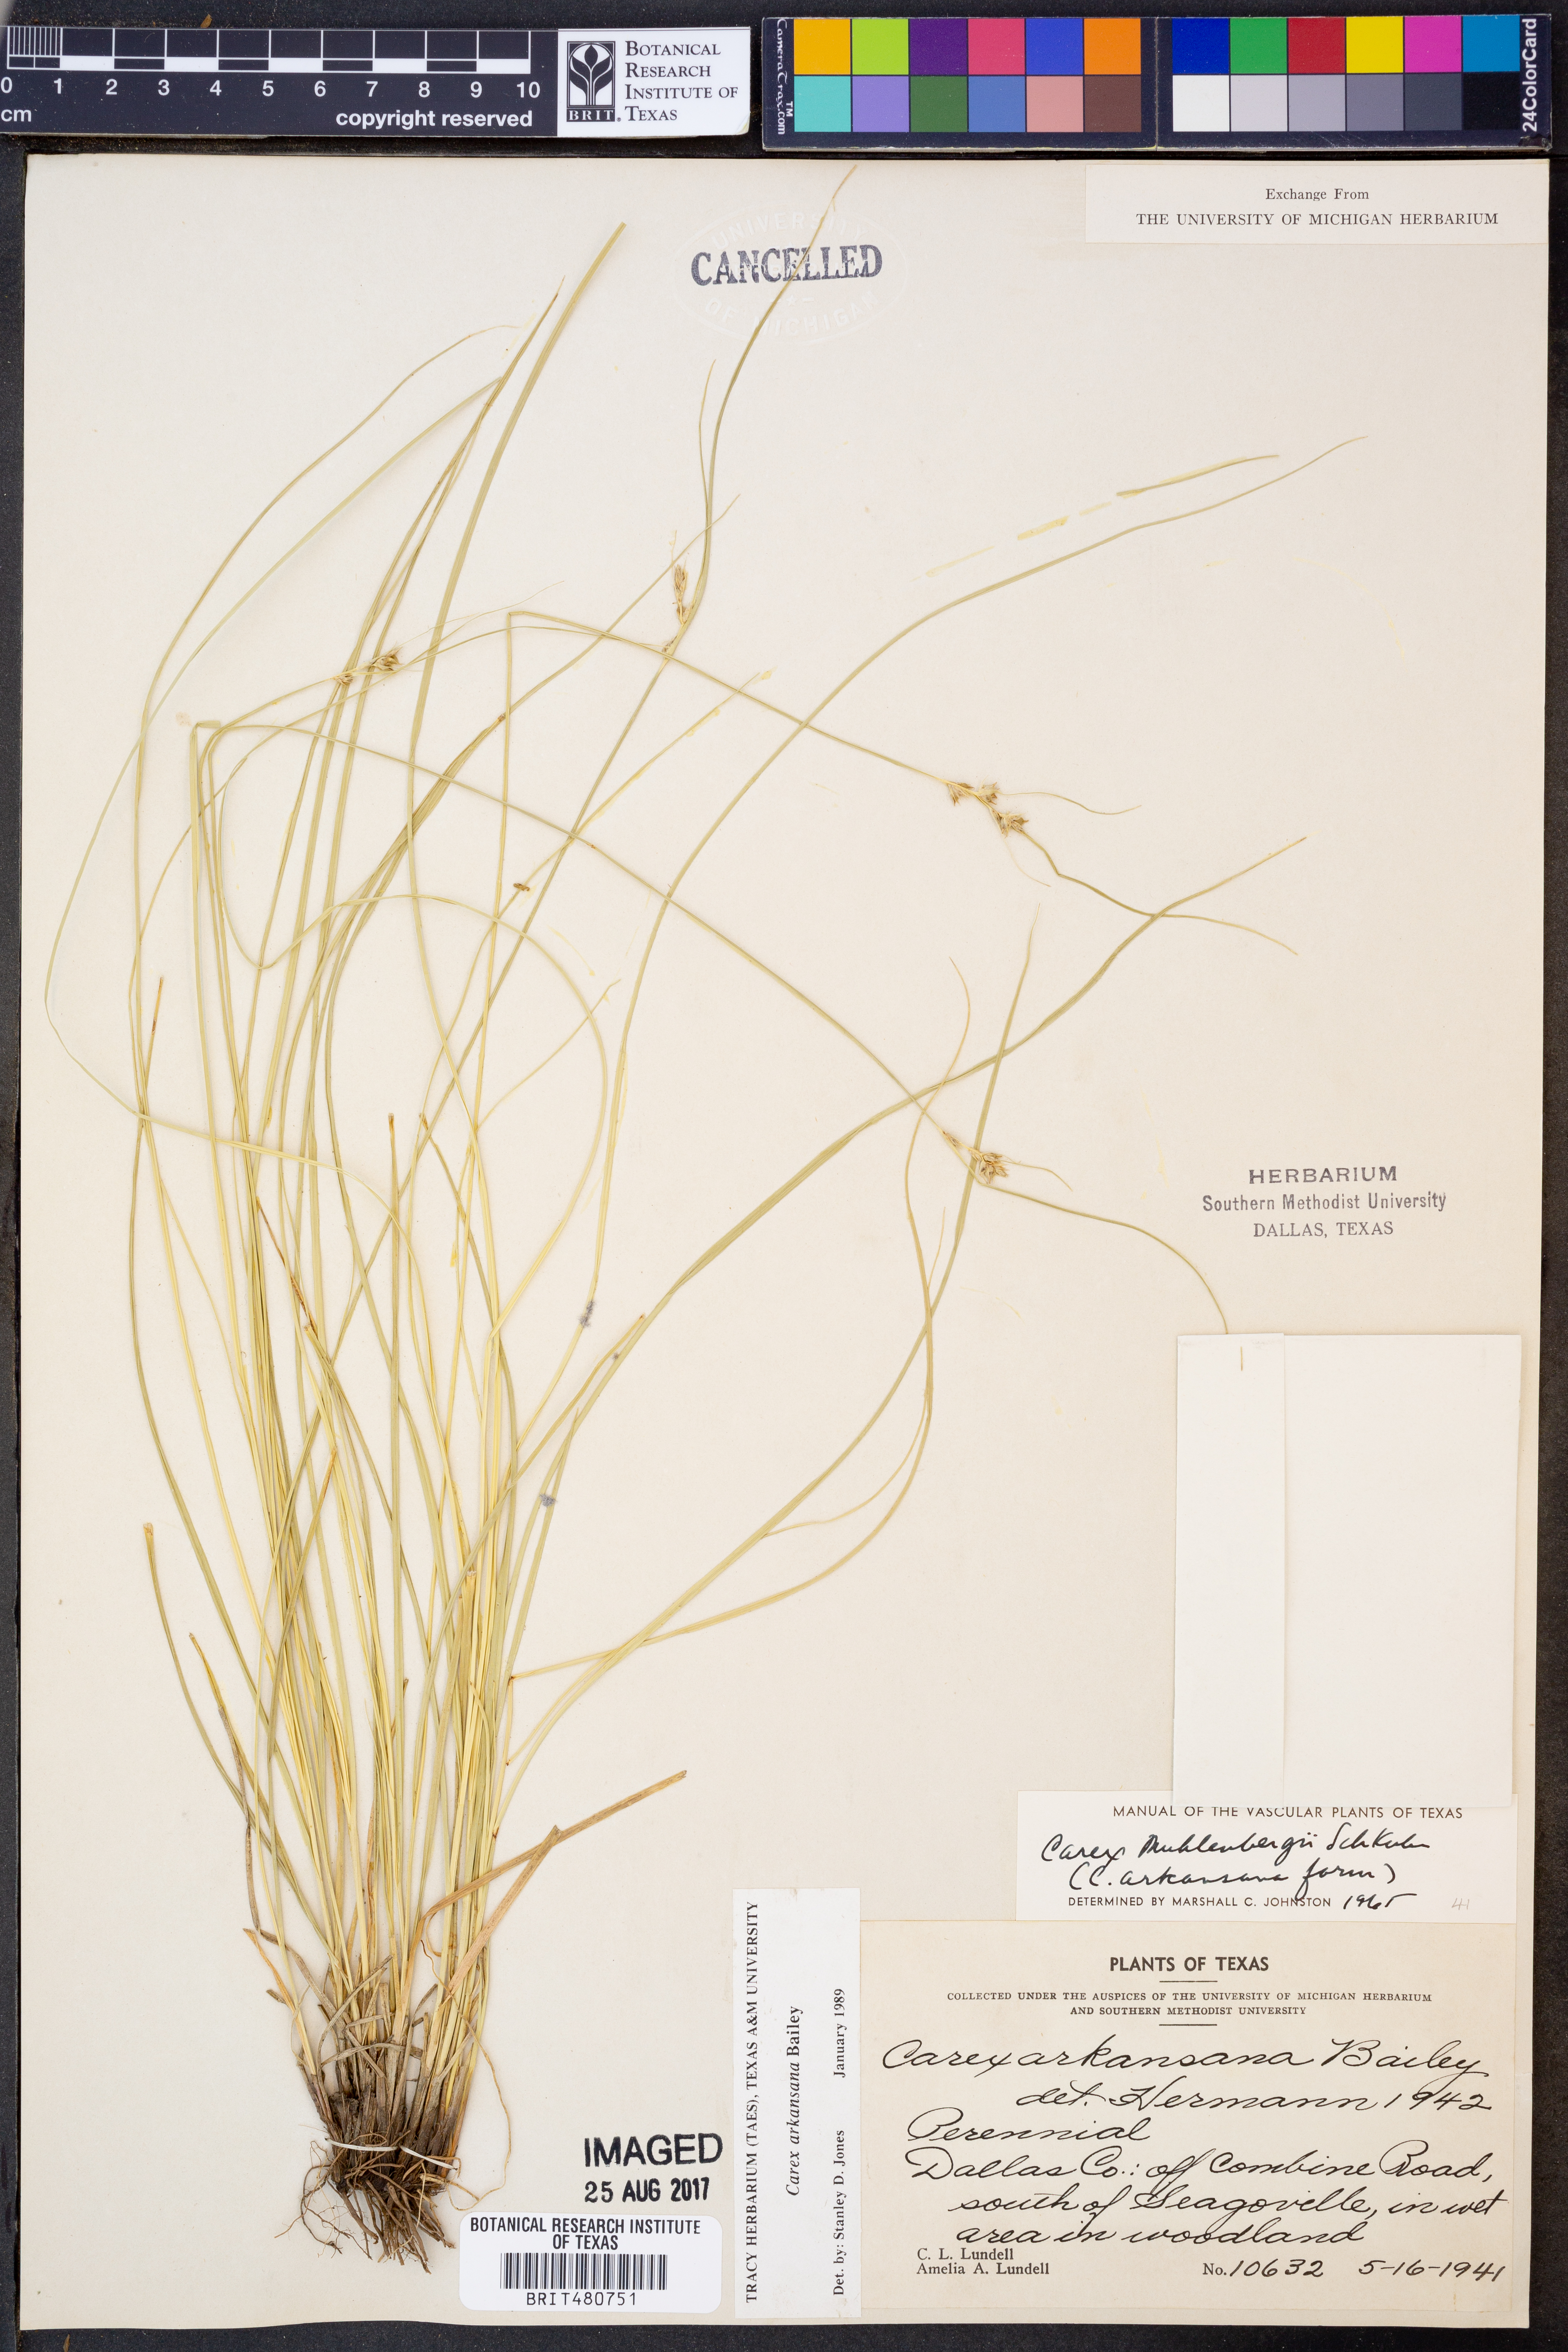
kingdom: Plantae
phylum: Tracheophyta
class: Liliopsida
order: Poales
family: Cyperaceae
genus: Carex
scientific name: Carex arkansana
